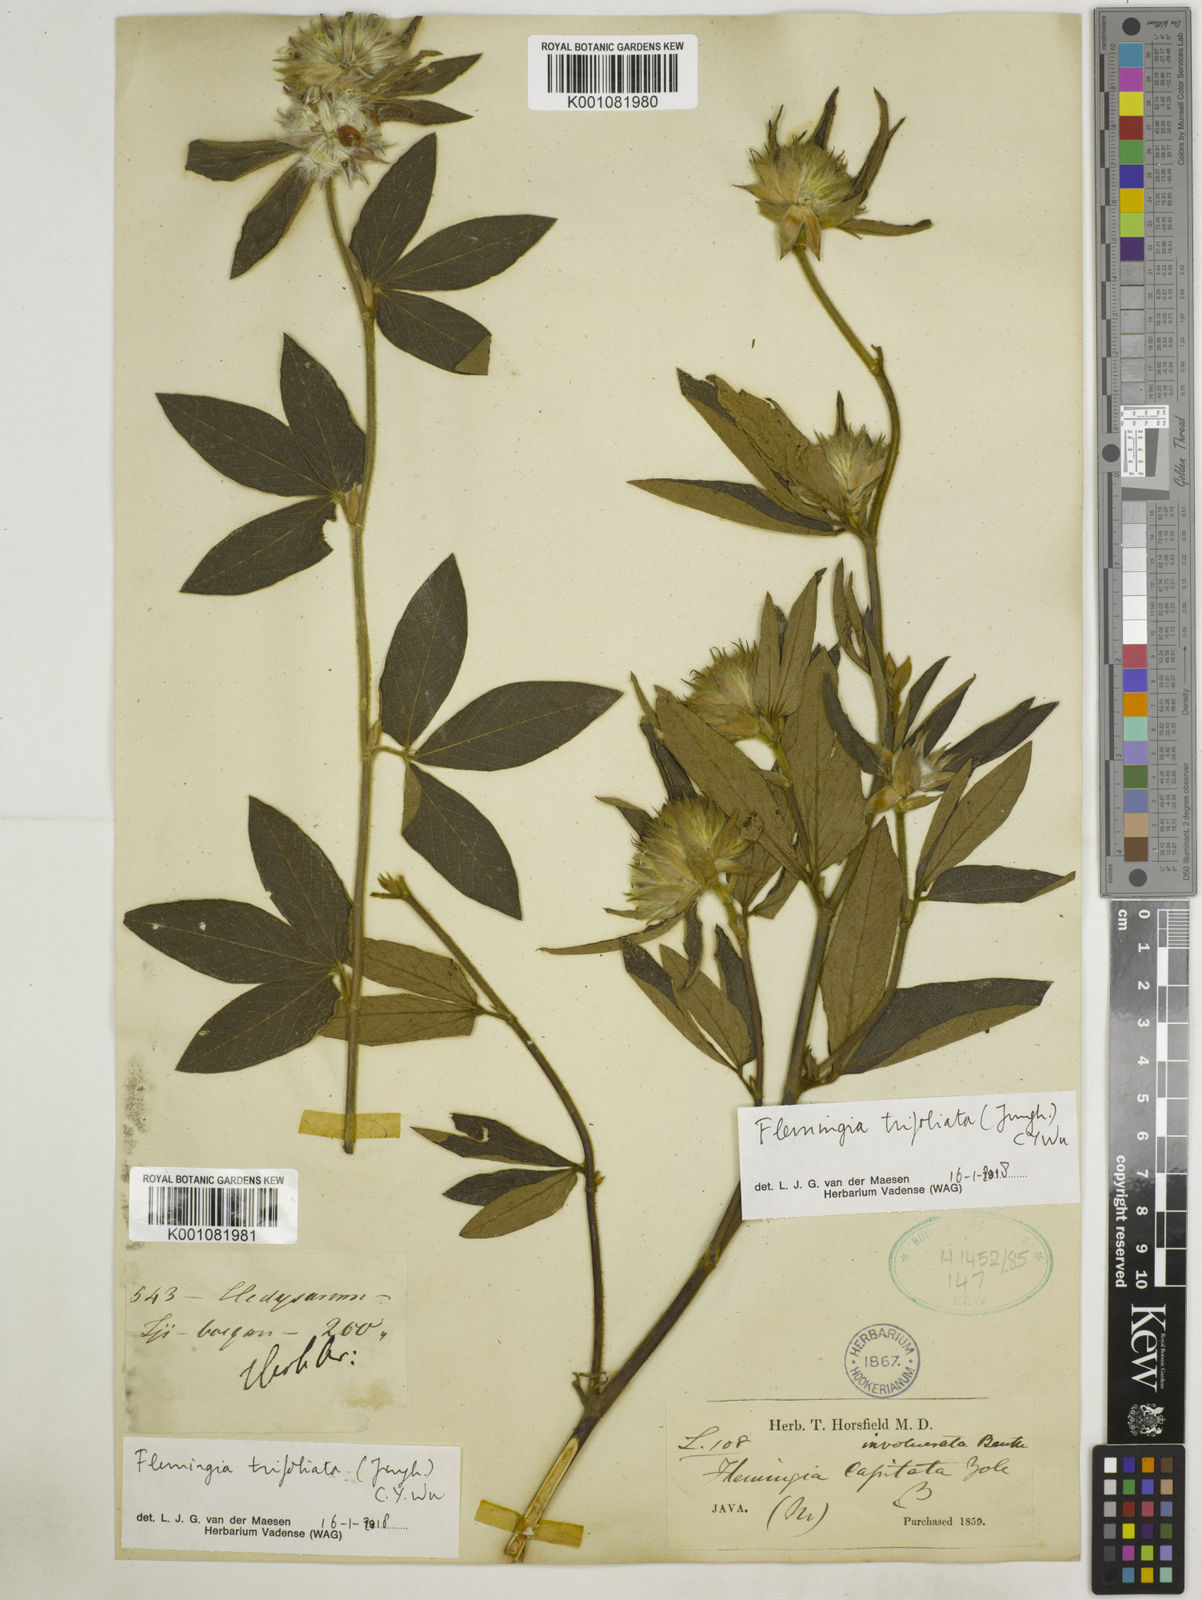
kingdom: Plantae
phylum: Tracheophyta
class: Magnoliopsida
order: Fabales
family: Fabaceae
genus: Flemingia
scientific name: Flemingia trifoliata
